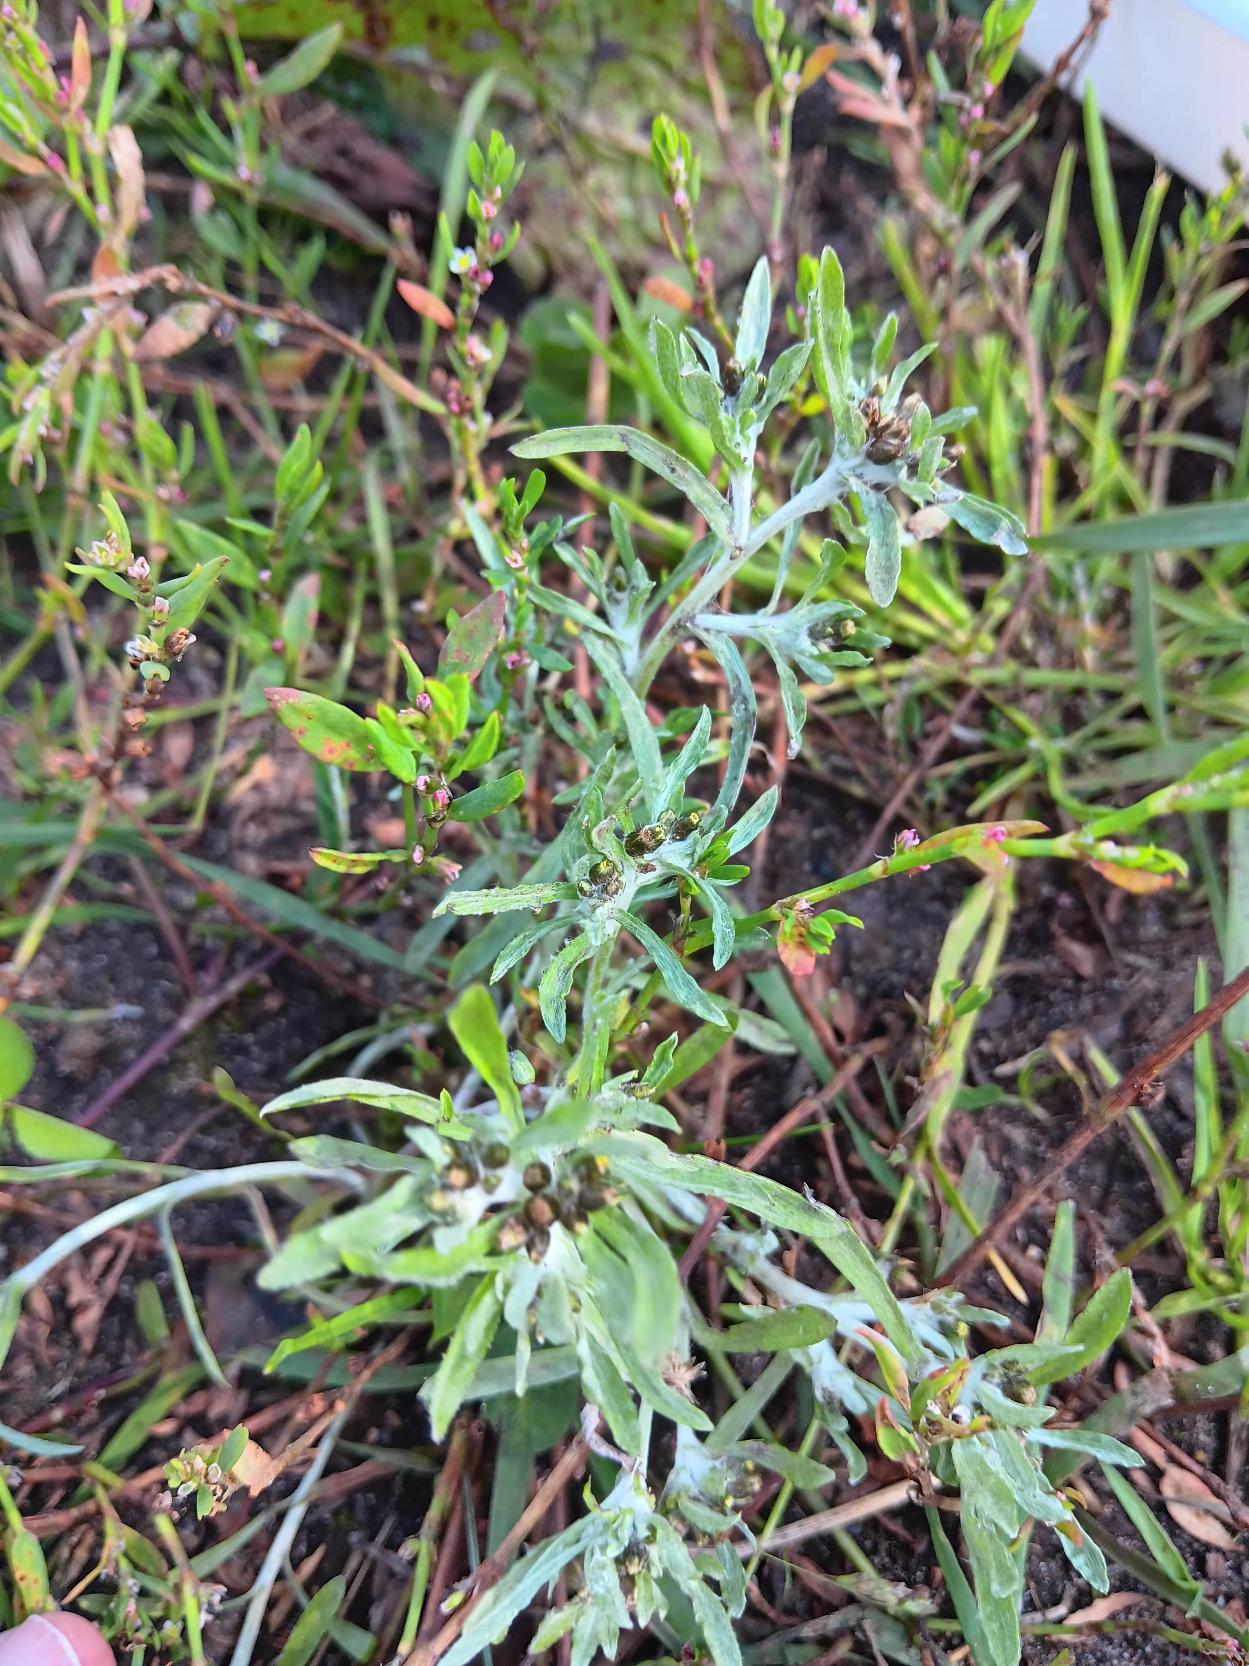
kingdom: Plantae
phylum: Tracheophyta
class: Magnoliopsida
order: Asterales
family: Asteraceae
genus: Gnaphalium
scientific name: Gnaphalium uliginosum
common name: Sump-evighedsblomst
